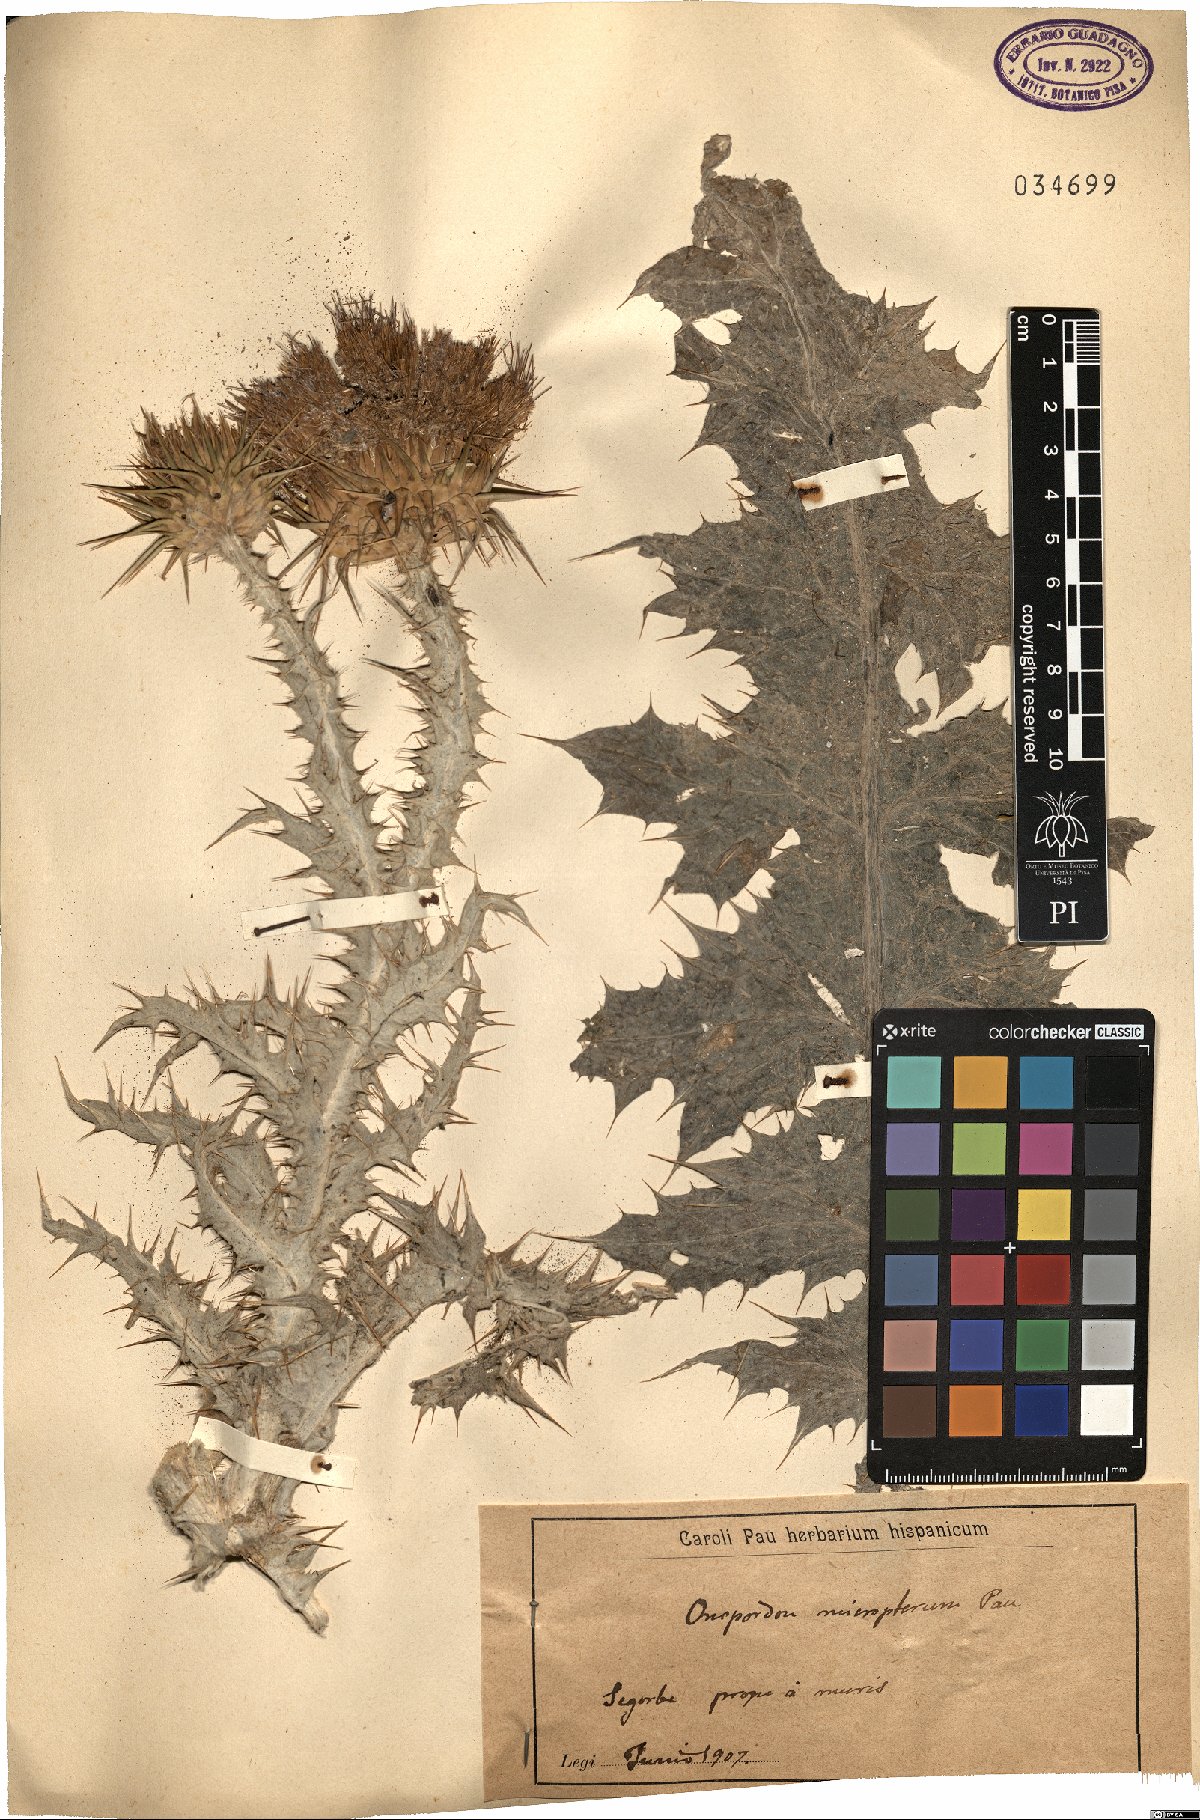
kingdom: Plantae
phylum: Tracheophyta
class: Magnoliopsida
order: Asterales
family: Asteraceae
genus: Onopordum
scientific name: Onopordum macracanthum
